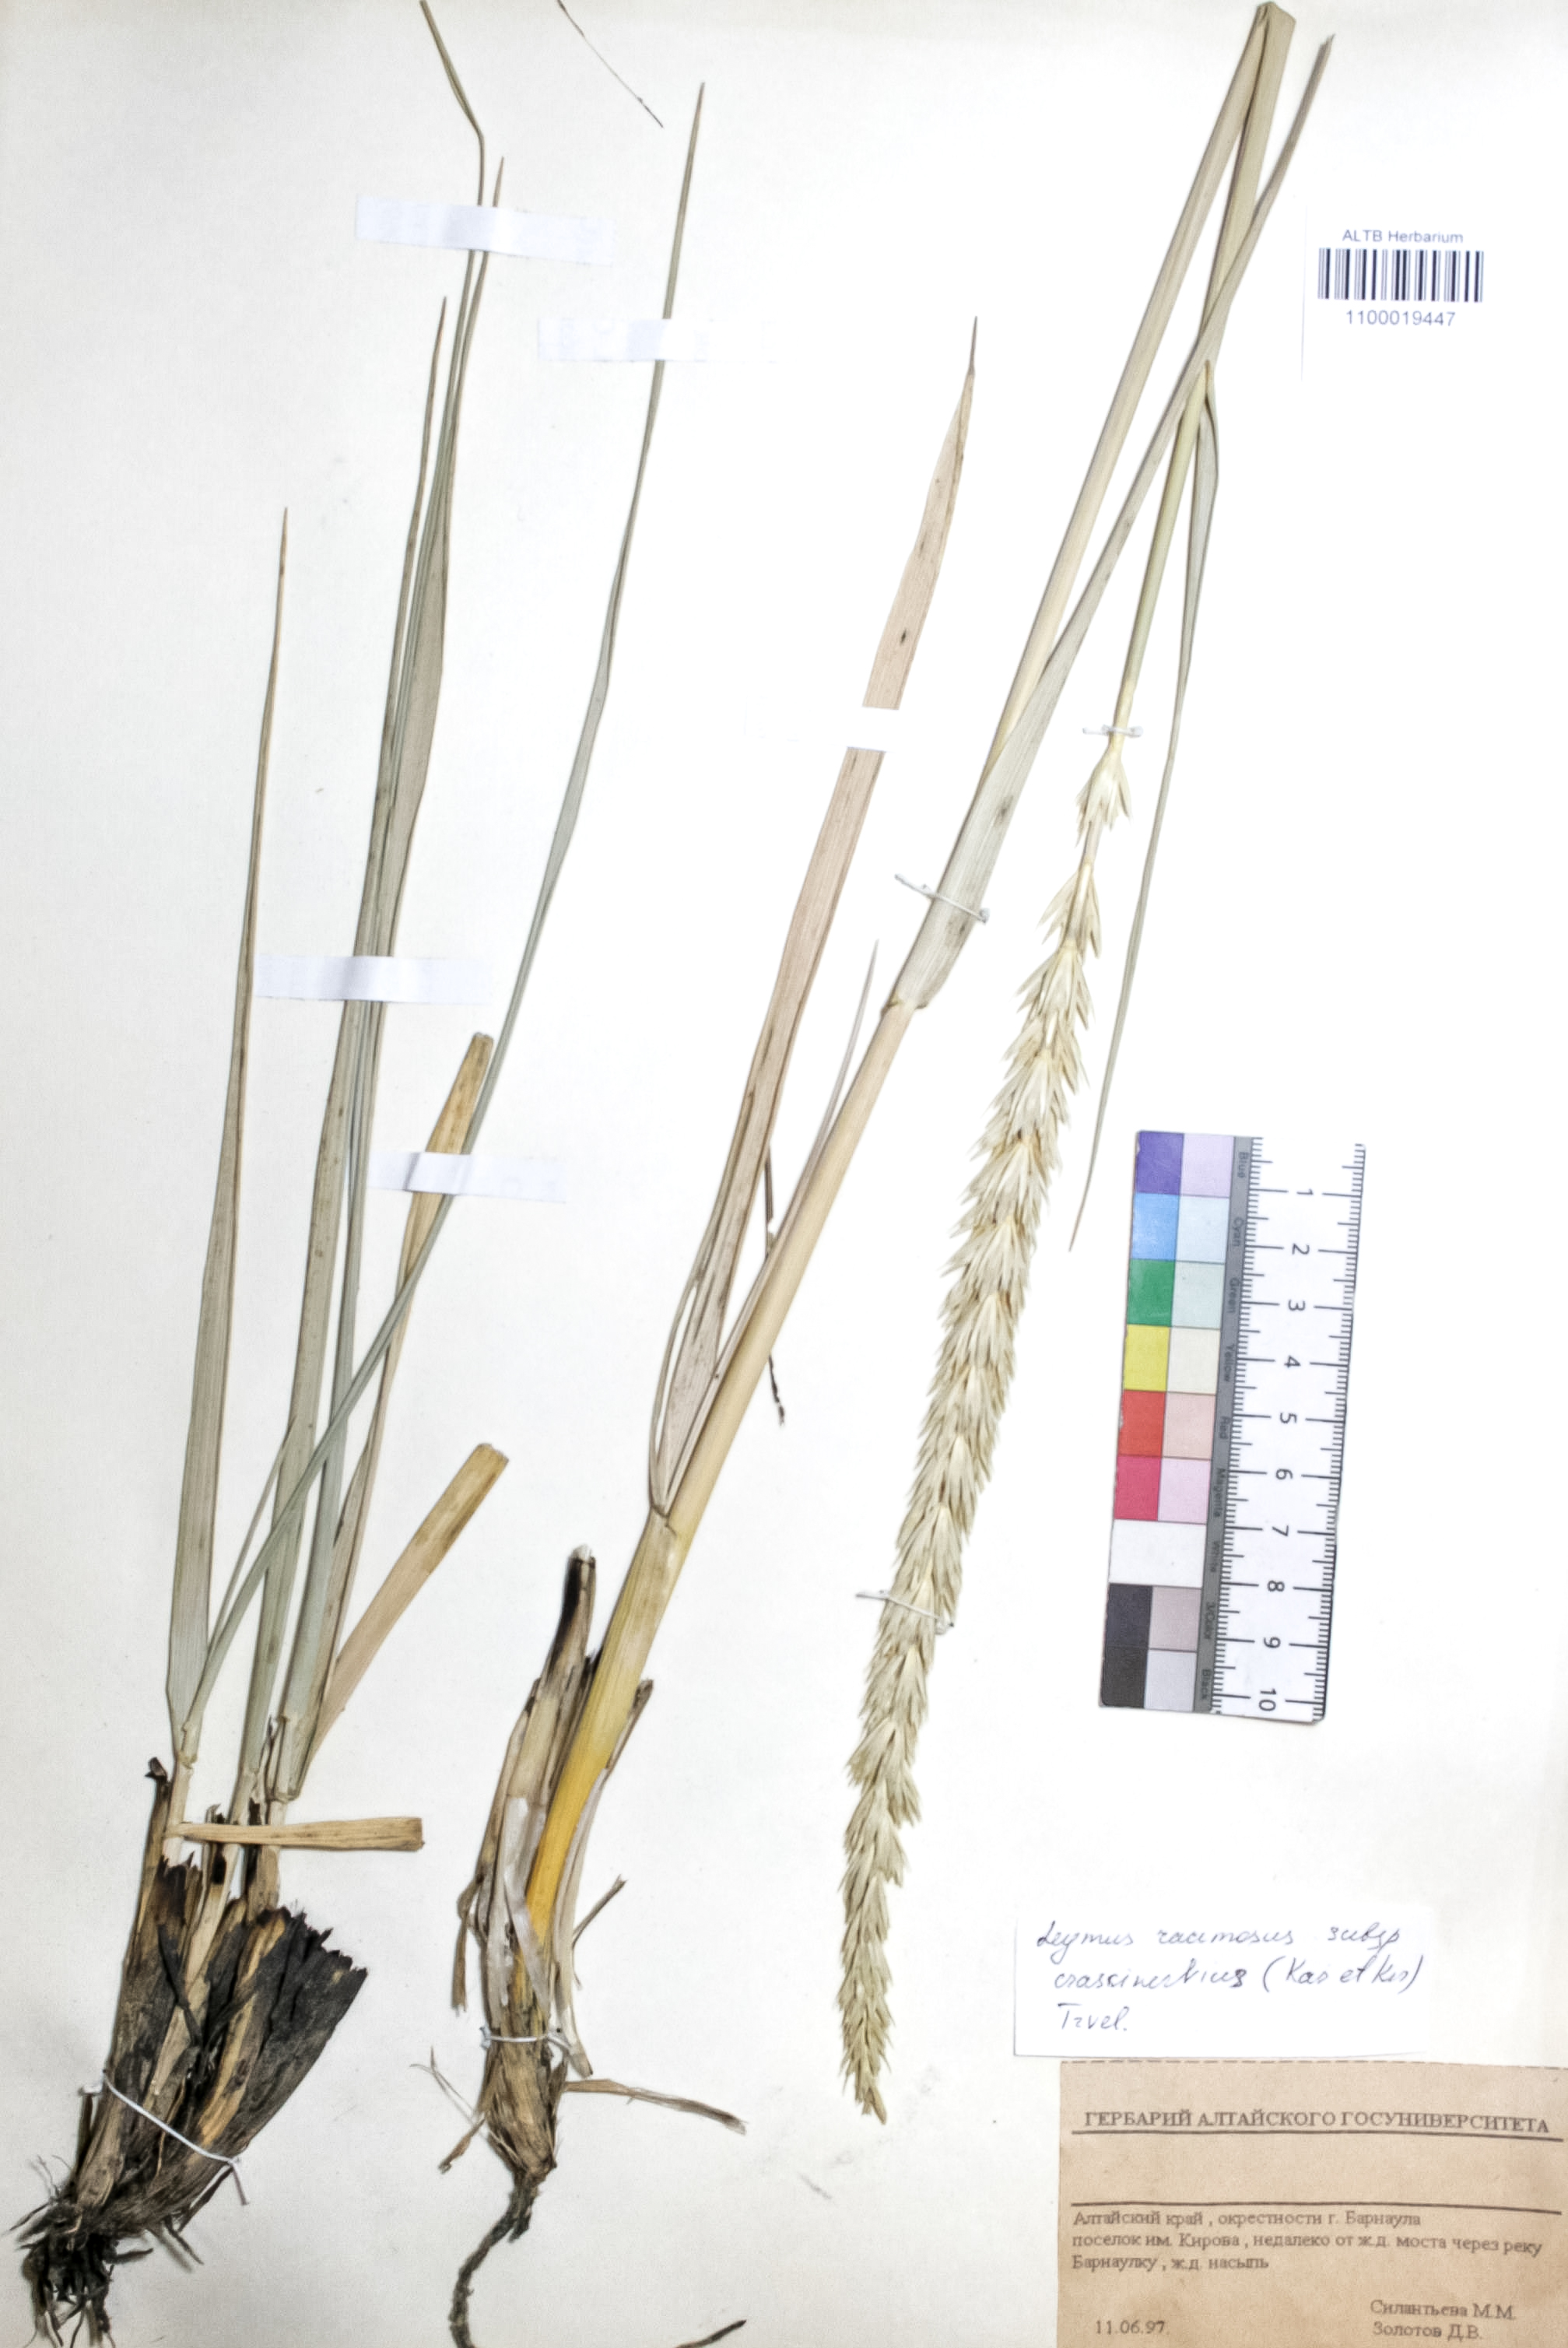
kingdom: Plantae
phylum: Tracheophyta
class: Liliopsida
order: Poales
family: Poaceae
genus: Leymus
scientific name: Leymus racemosus
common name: Mammoth wildrye
